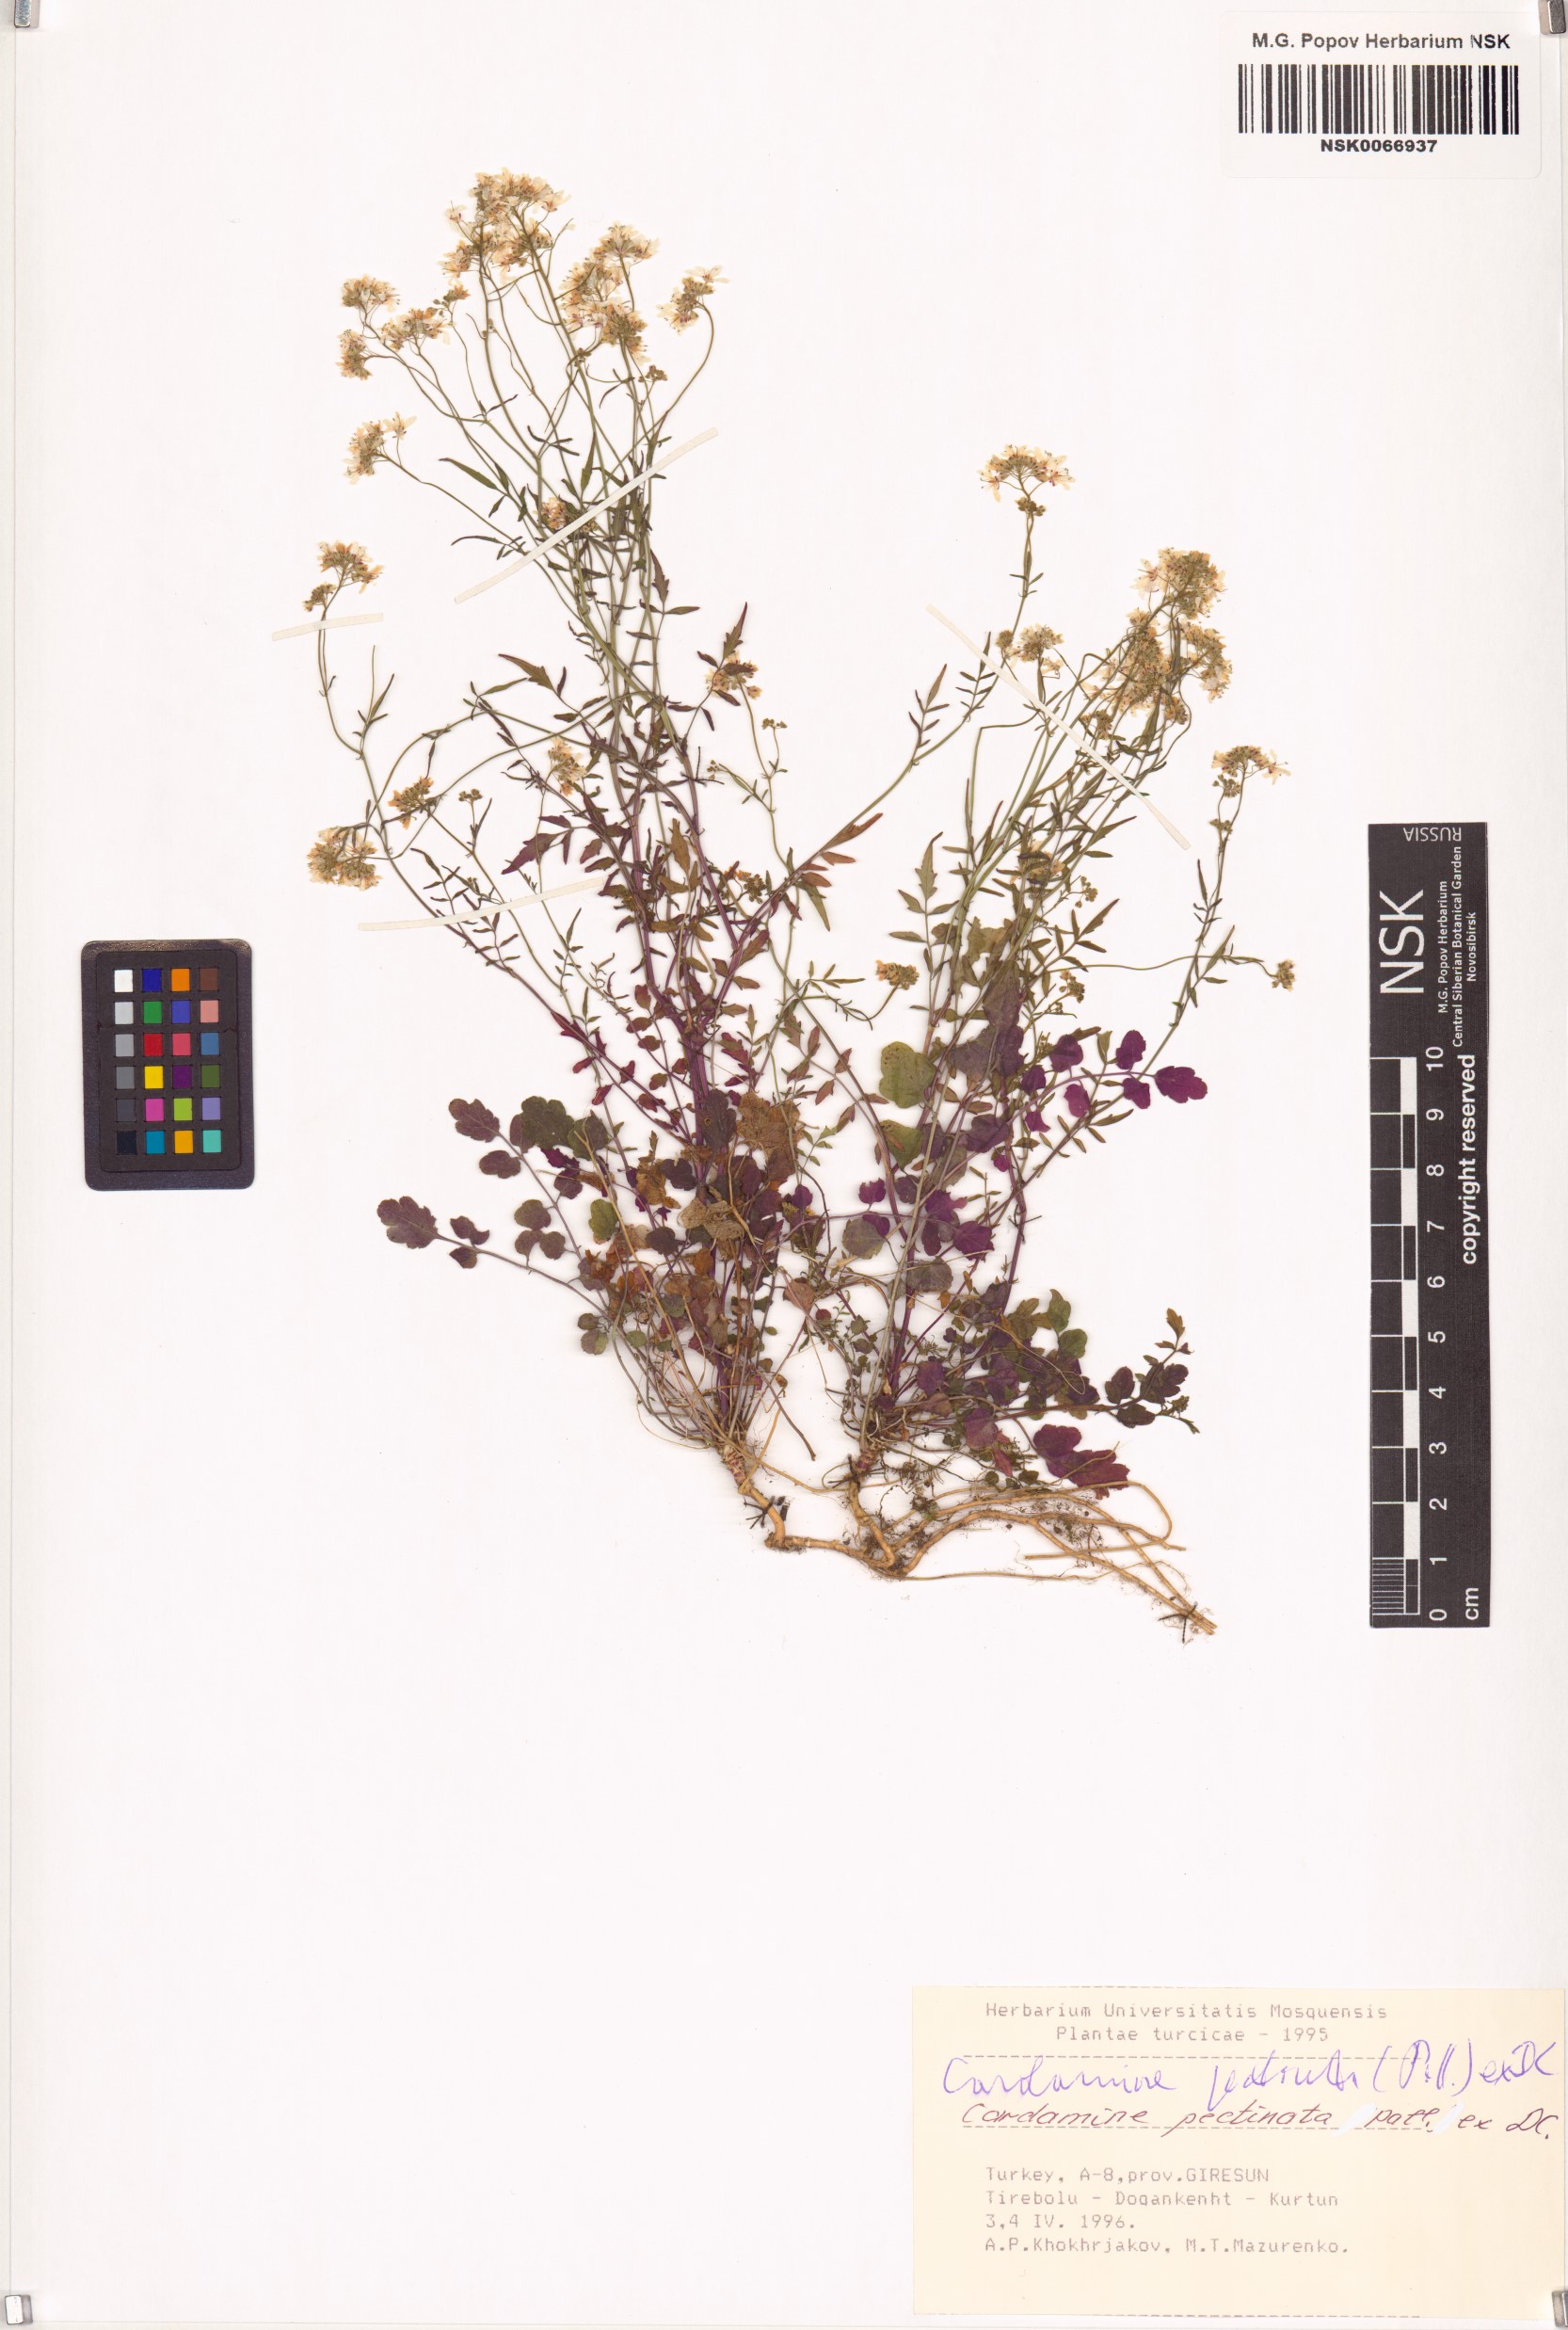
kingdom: Plantae
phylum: Tracheophyta
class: Magnoliopsida
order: Brassicales
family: Brassicaceae
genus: Cardamine
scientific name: Cardamine impatiens
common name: Narrow-leaved bitter-cress
